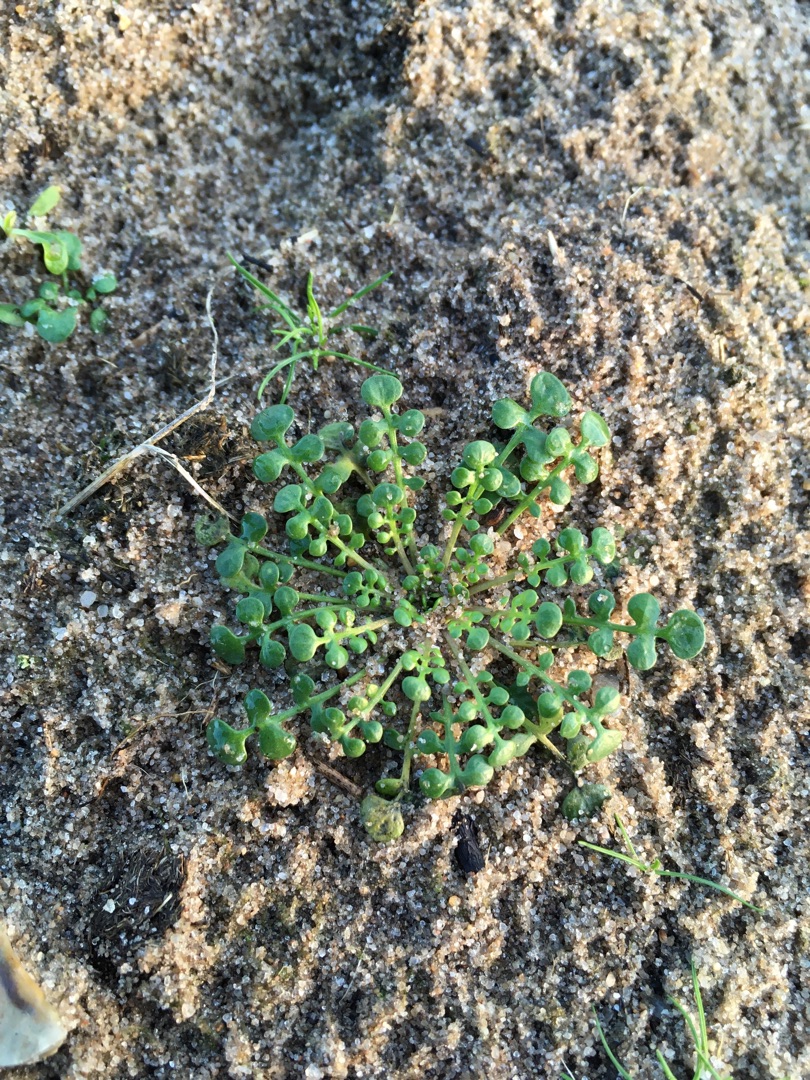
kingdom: Plantae
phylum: Tracheophyta
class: Magnoliopsida
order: Brassicales
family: Brassicaceae
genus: Teesdalia
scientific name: Teesdalia nudicaulis
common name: Flipkrave
